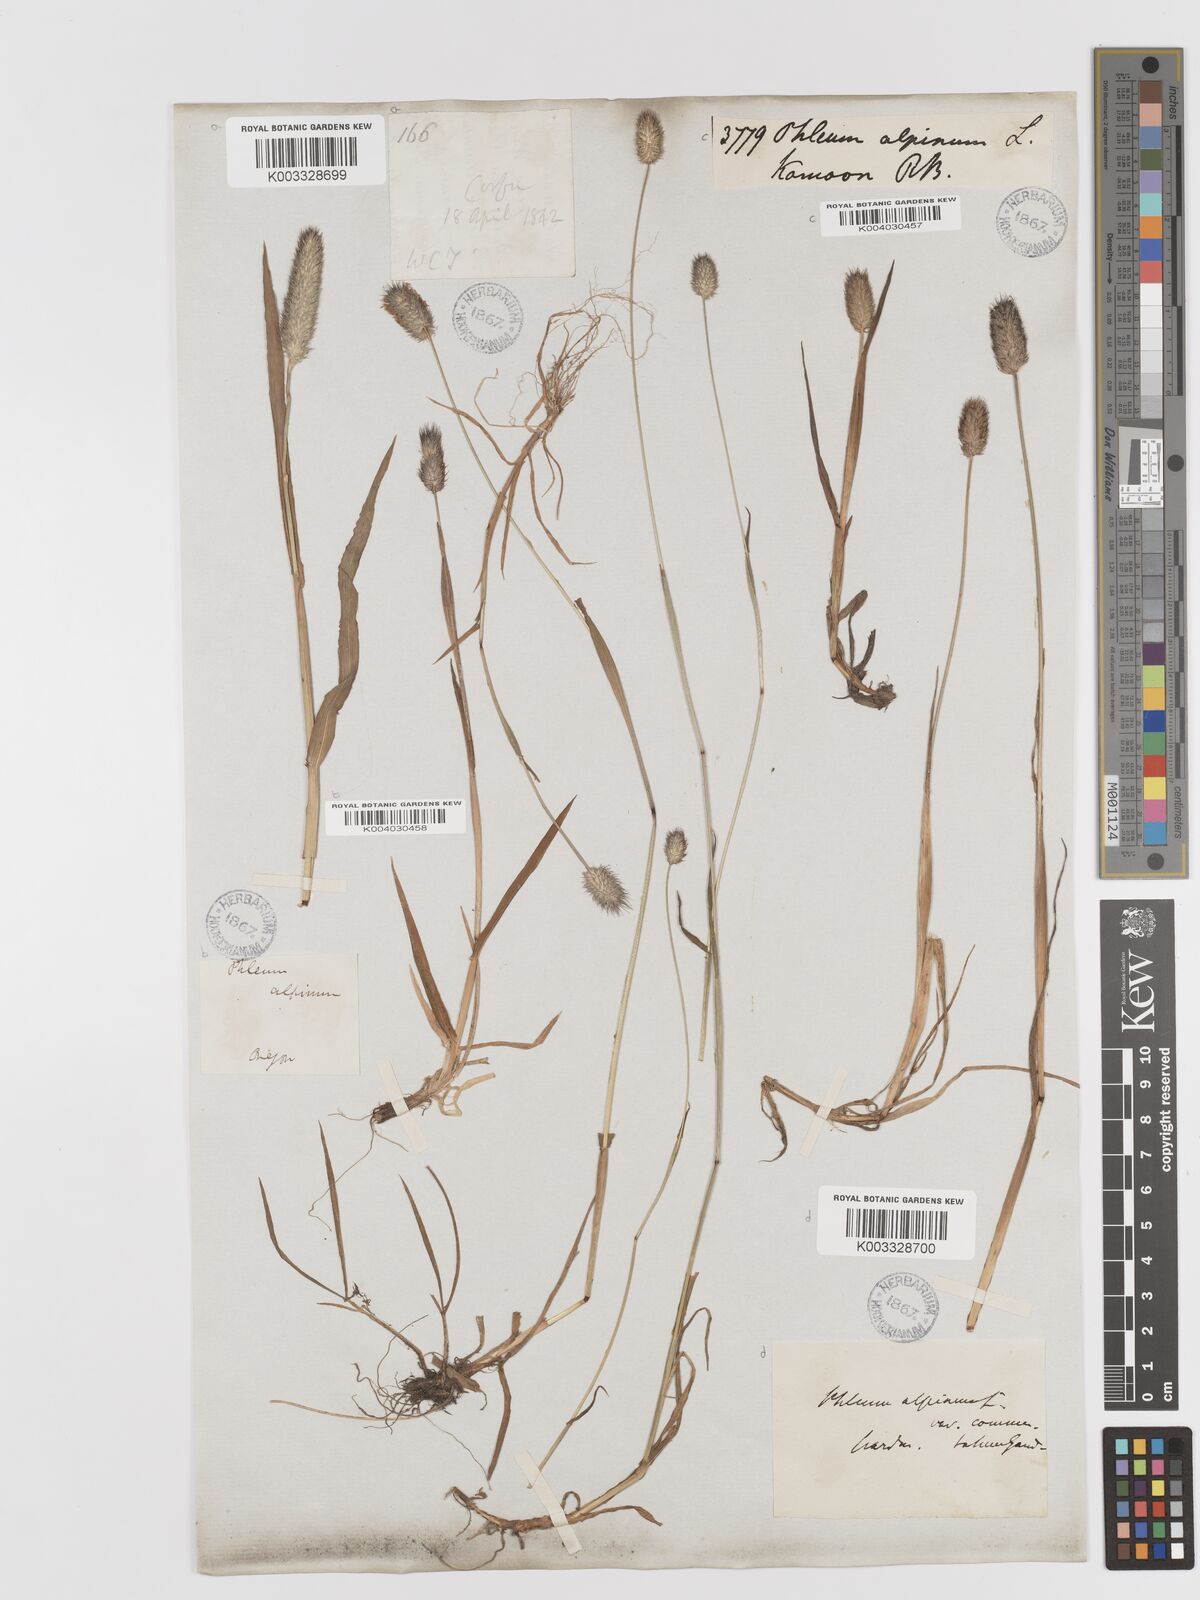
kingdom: Plantae
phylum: Tracheophyta
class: Liliopsida
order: Poales
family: Poaceae
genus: Phleum
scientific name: Phleum alpinum
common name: Alpine cat's-tail
